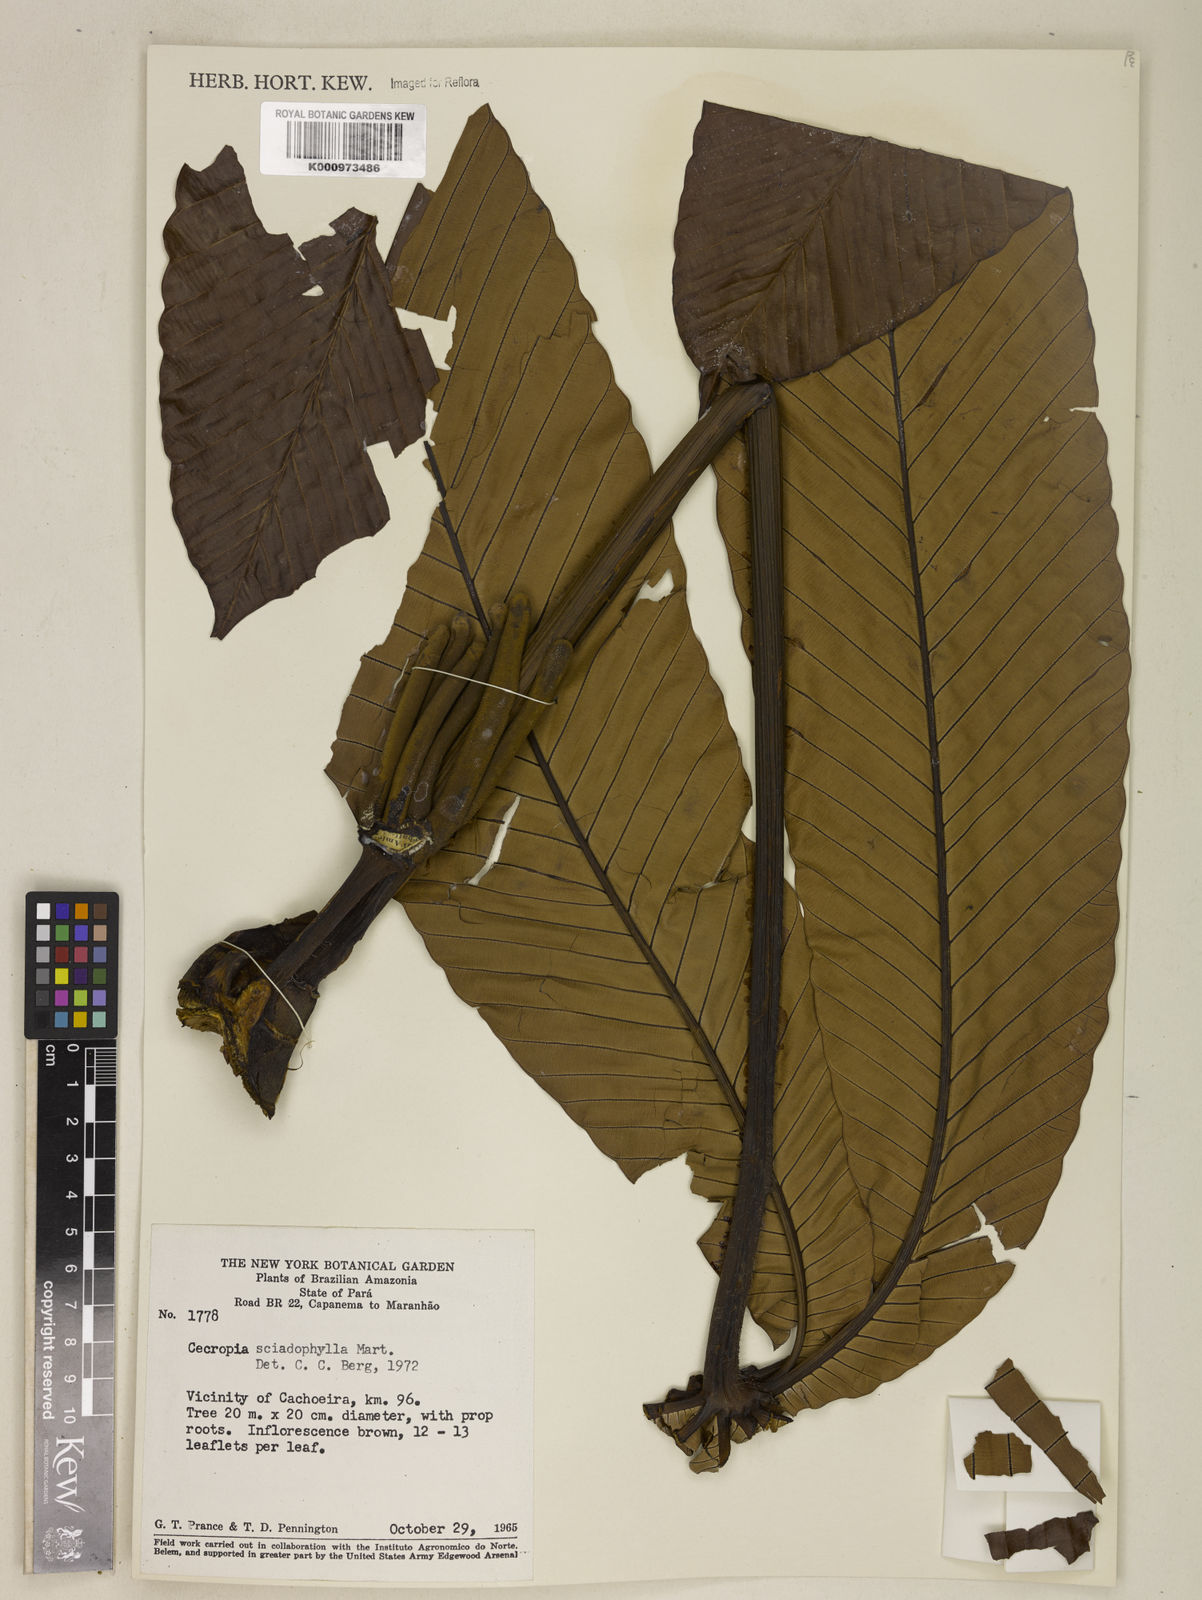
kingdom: Plantae
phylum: Tracheophyta
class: Magnoliopsida
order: Rosales
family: Urticaceae
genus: Cecropia
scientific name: Cecropia sciadophylla
